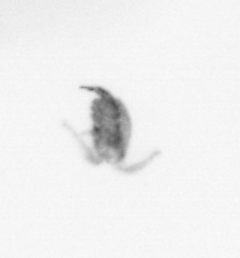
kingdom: Animalia
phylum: Arthropoda
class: Copepoda
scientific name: Copepoda
